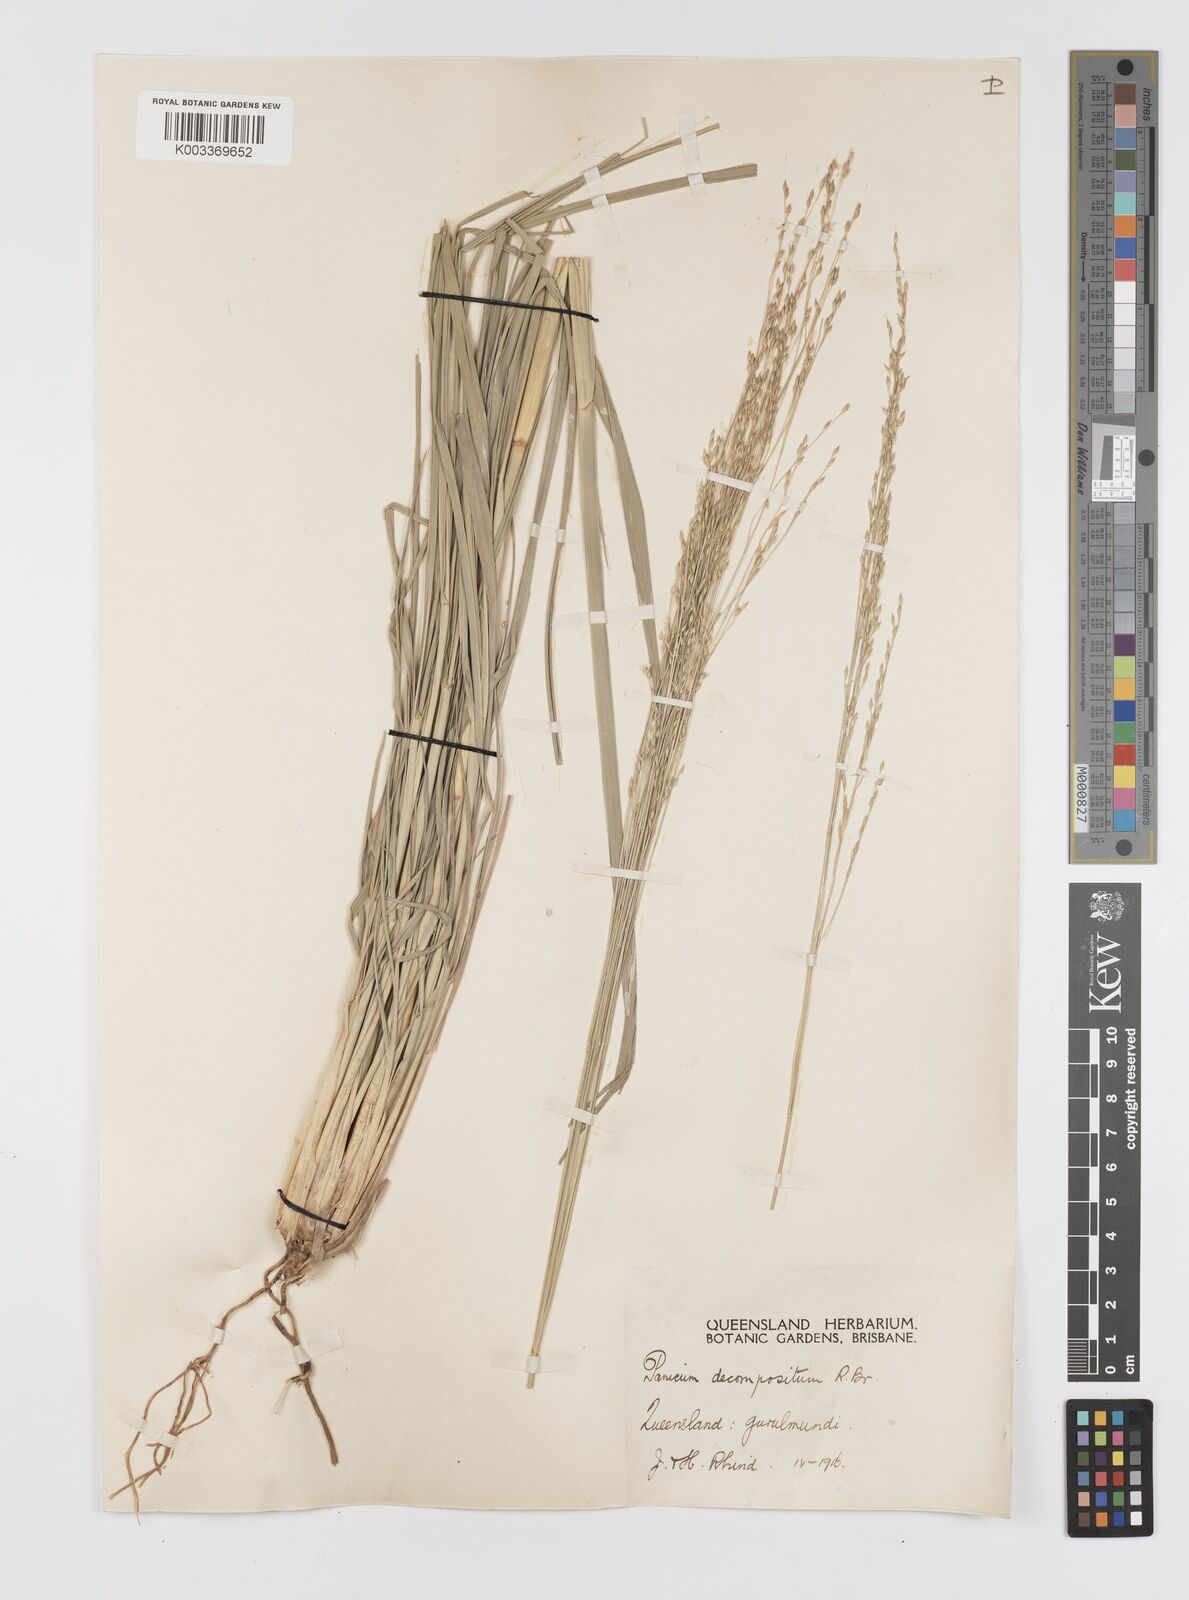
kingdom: Plantae
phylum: Tracheophyta
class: Liliopsida
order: Poales
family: Poaceae
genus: Panicum
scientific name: Panicum decompositum
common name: Australian millet
